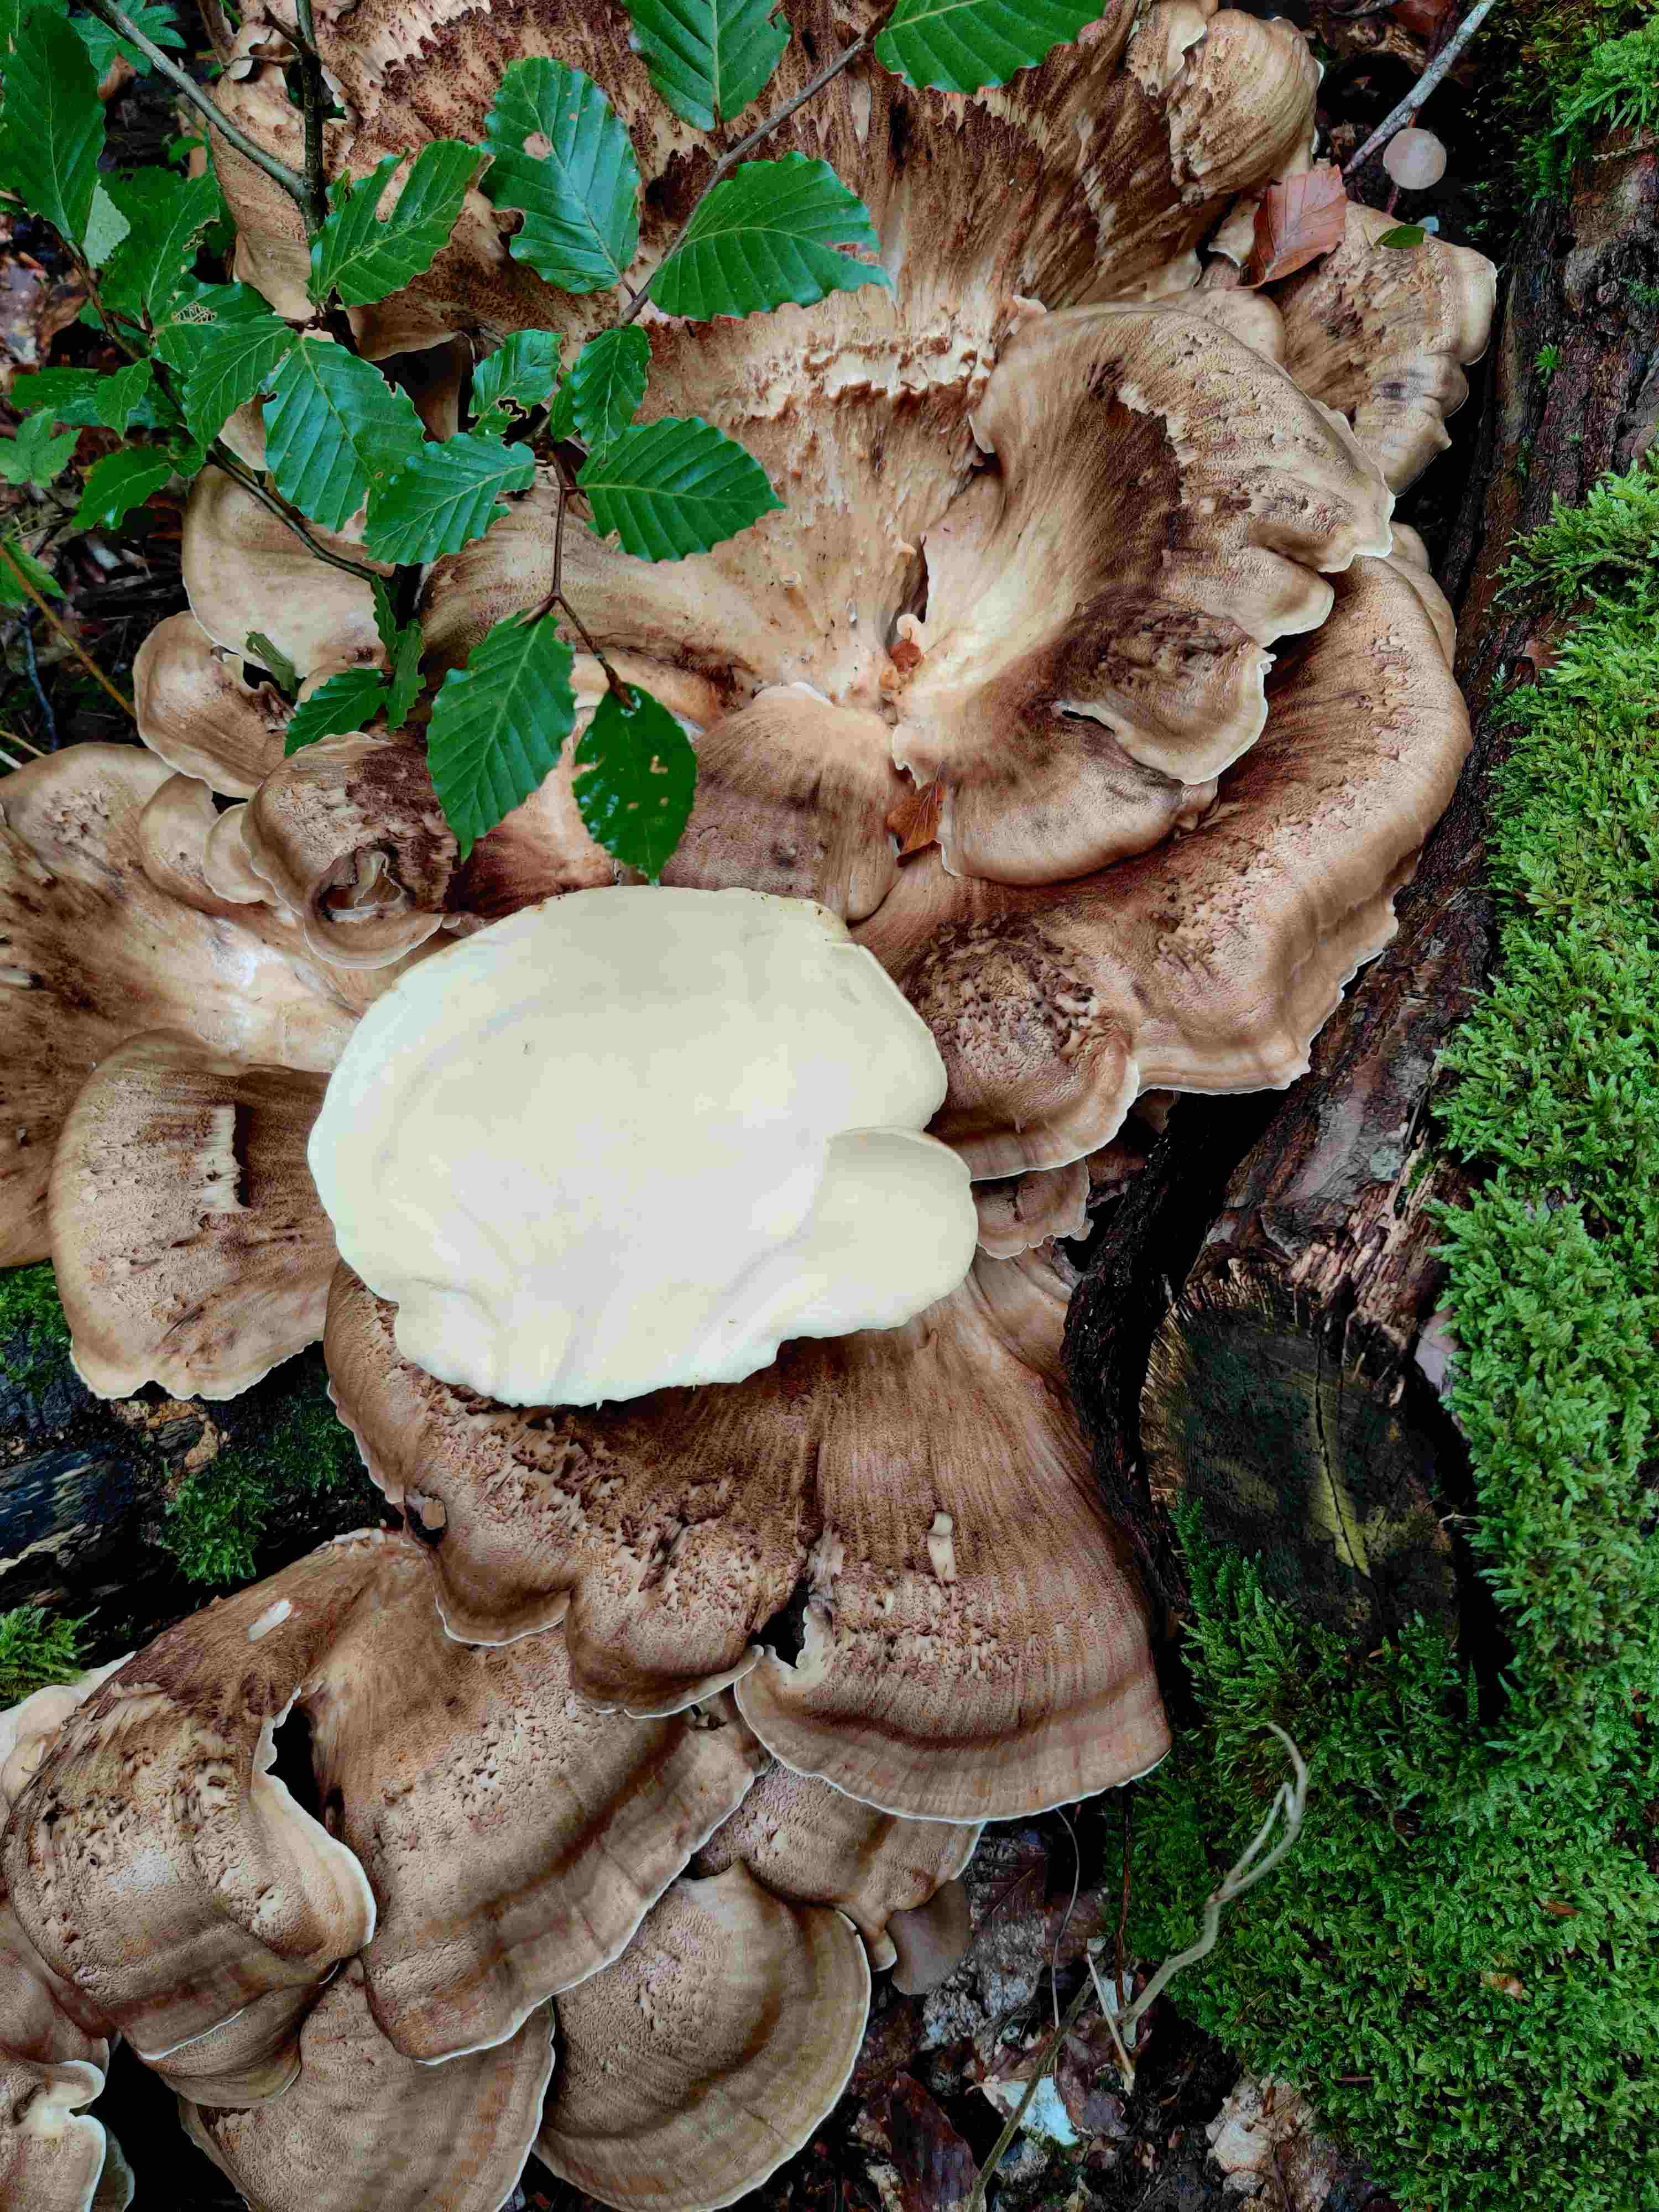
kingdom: Fungi
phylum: Basidiomycota
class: Agaricomycetes
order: Polyporales
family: Meripilaceae
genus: Meripilus
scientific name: Meripilus giganteus
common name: kæmpeporesvamp
